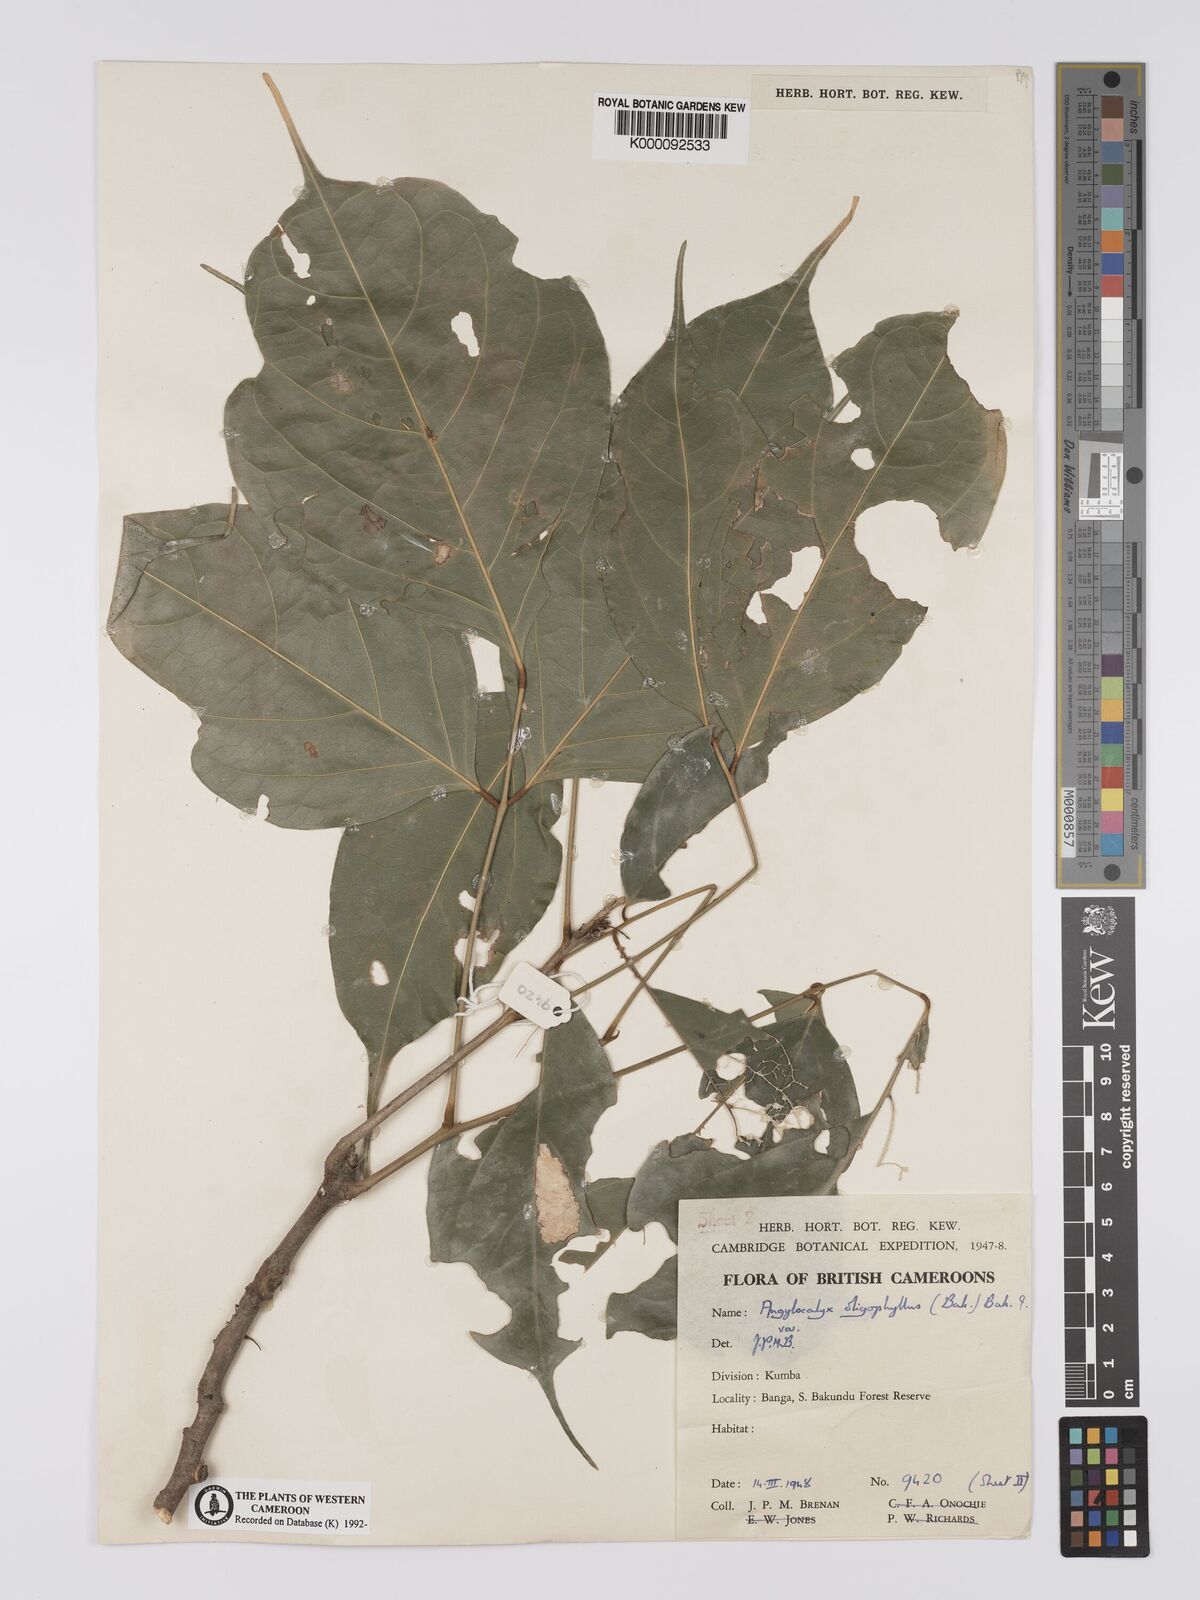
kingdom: Plantae
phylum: Tracheophyta
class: Magnoliopsida
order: Fabales
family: Fabaceae
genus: Angylocalyx
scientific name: Angylocalyx oligophyllus
